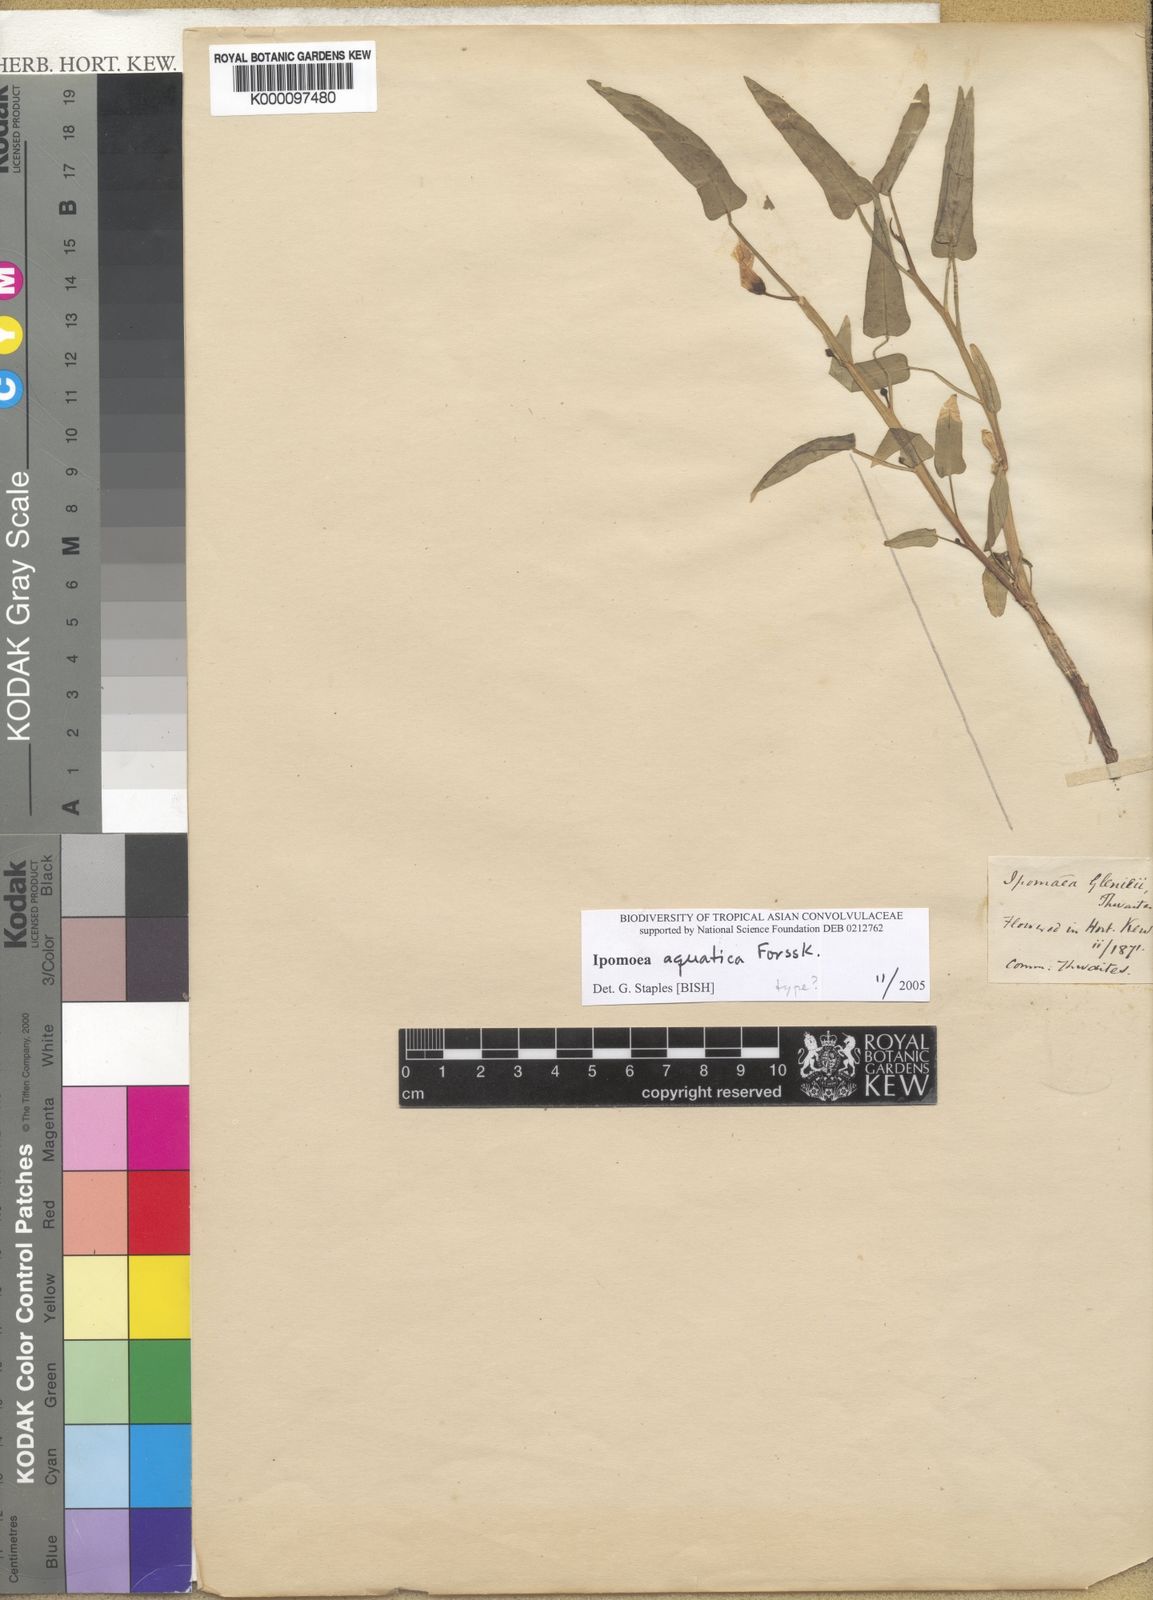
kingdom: Plantae
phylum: Tracheophyta
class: Magnoliopsida
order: Solanales
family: Convolvulaceae
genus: Ipomoea
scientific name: Ipomoea aquatica
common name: Swamp morning-glory
